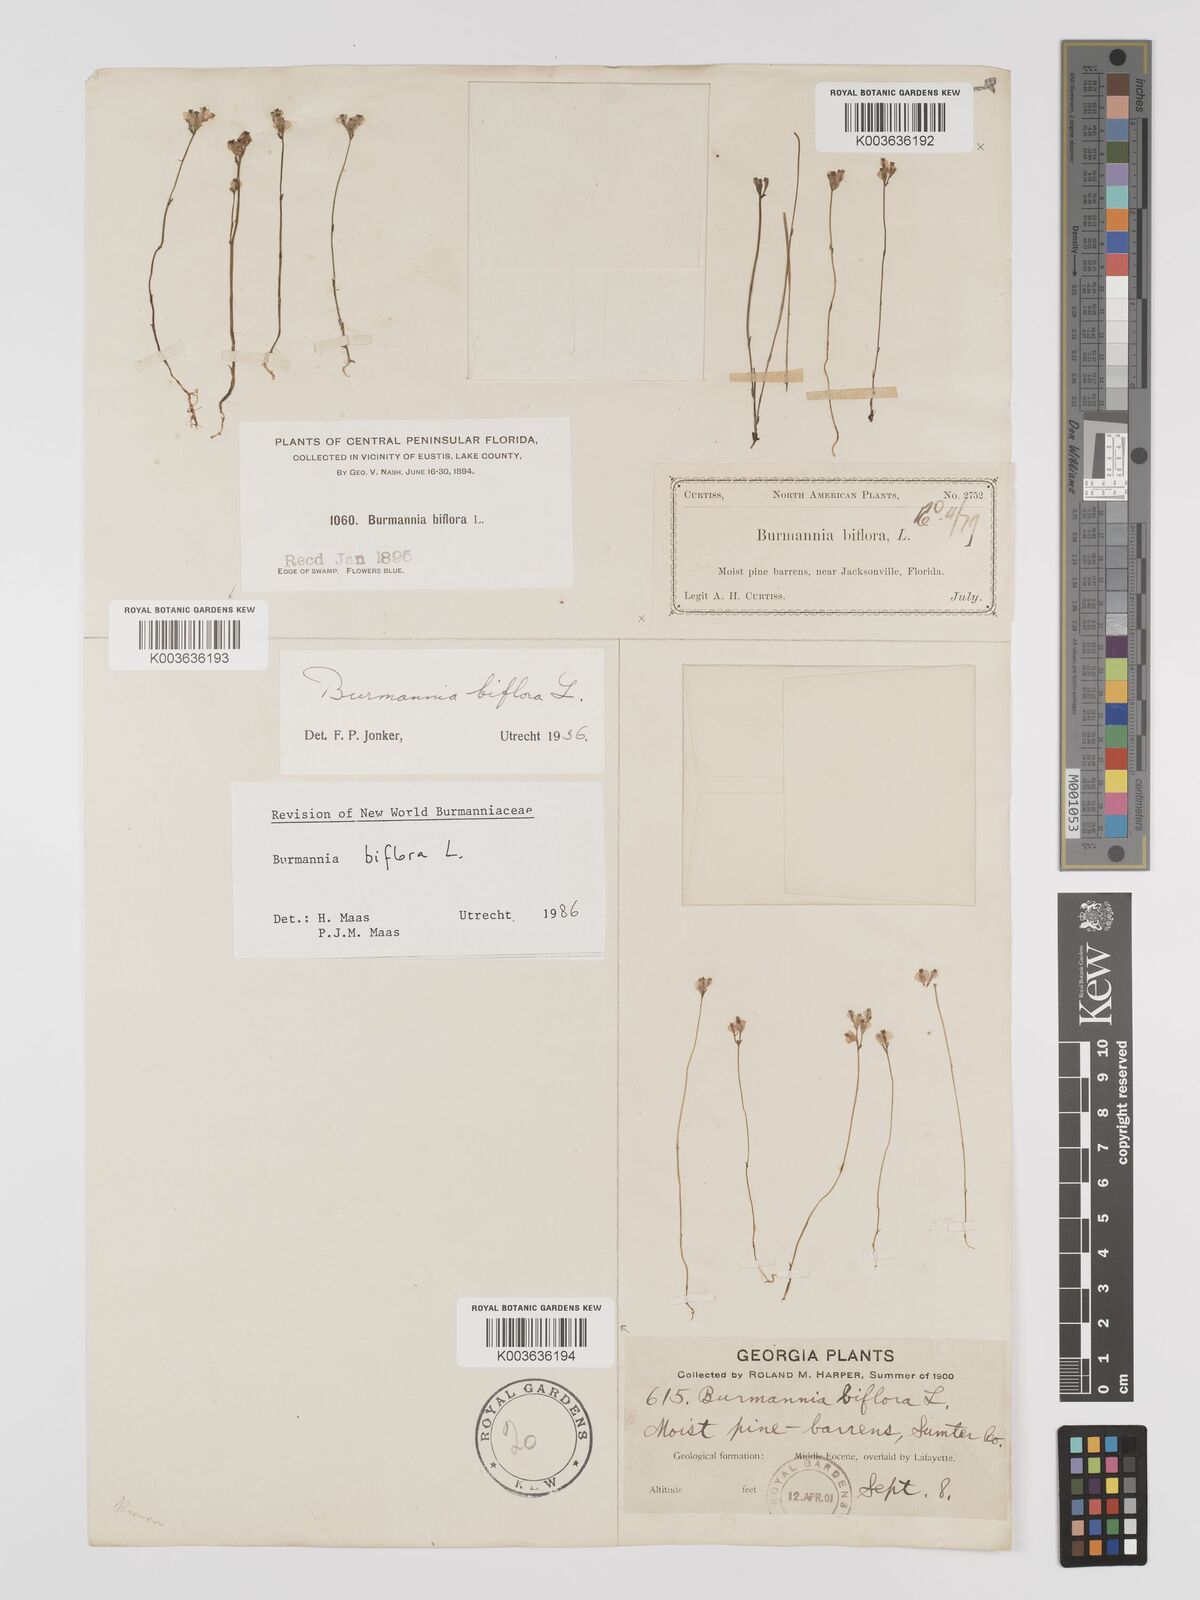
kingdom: Plantae
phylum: Tracheophyta
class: Liliopsida
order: Dioscoreales
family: Burmanniaceae
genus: Burmannia
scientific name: Burmannia biflora
